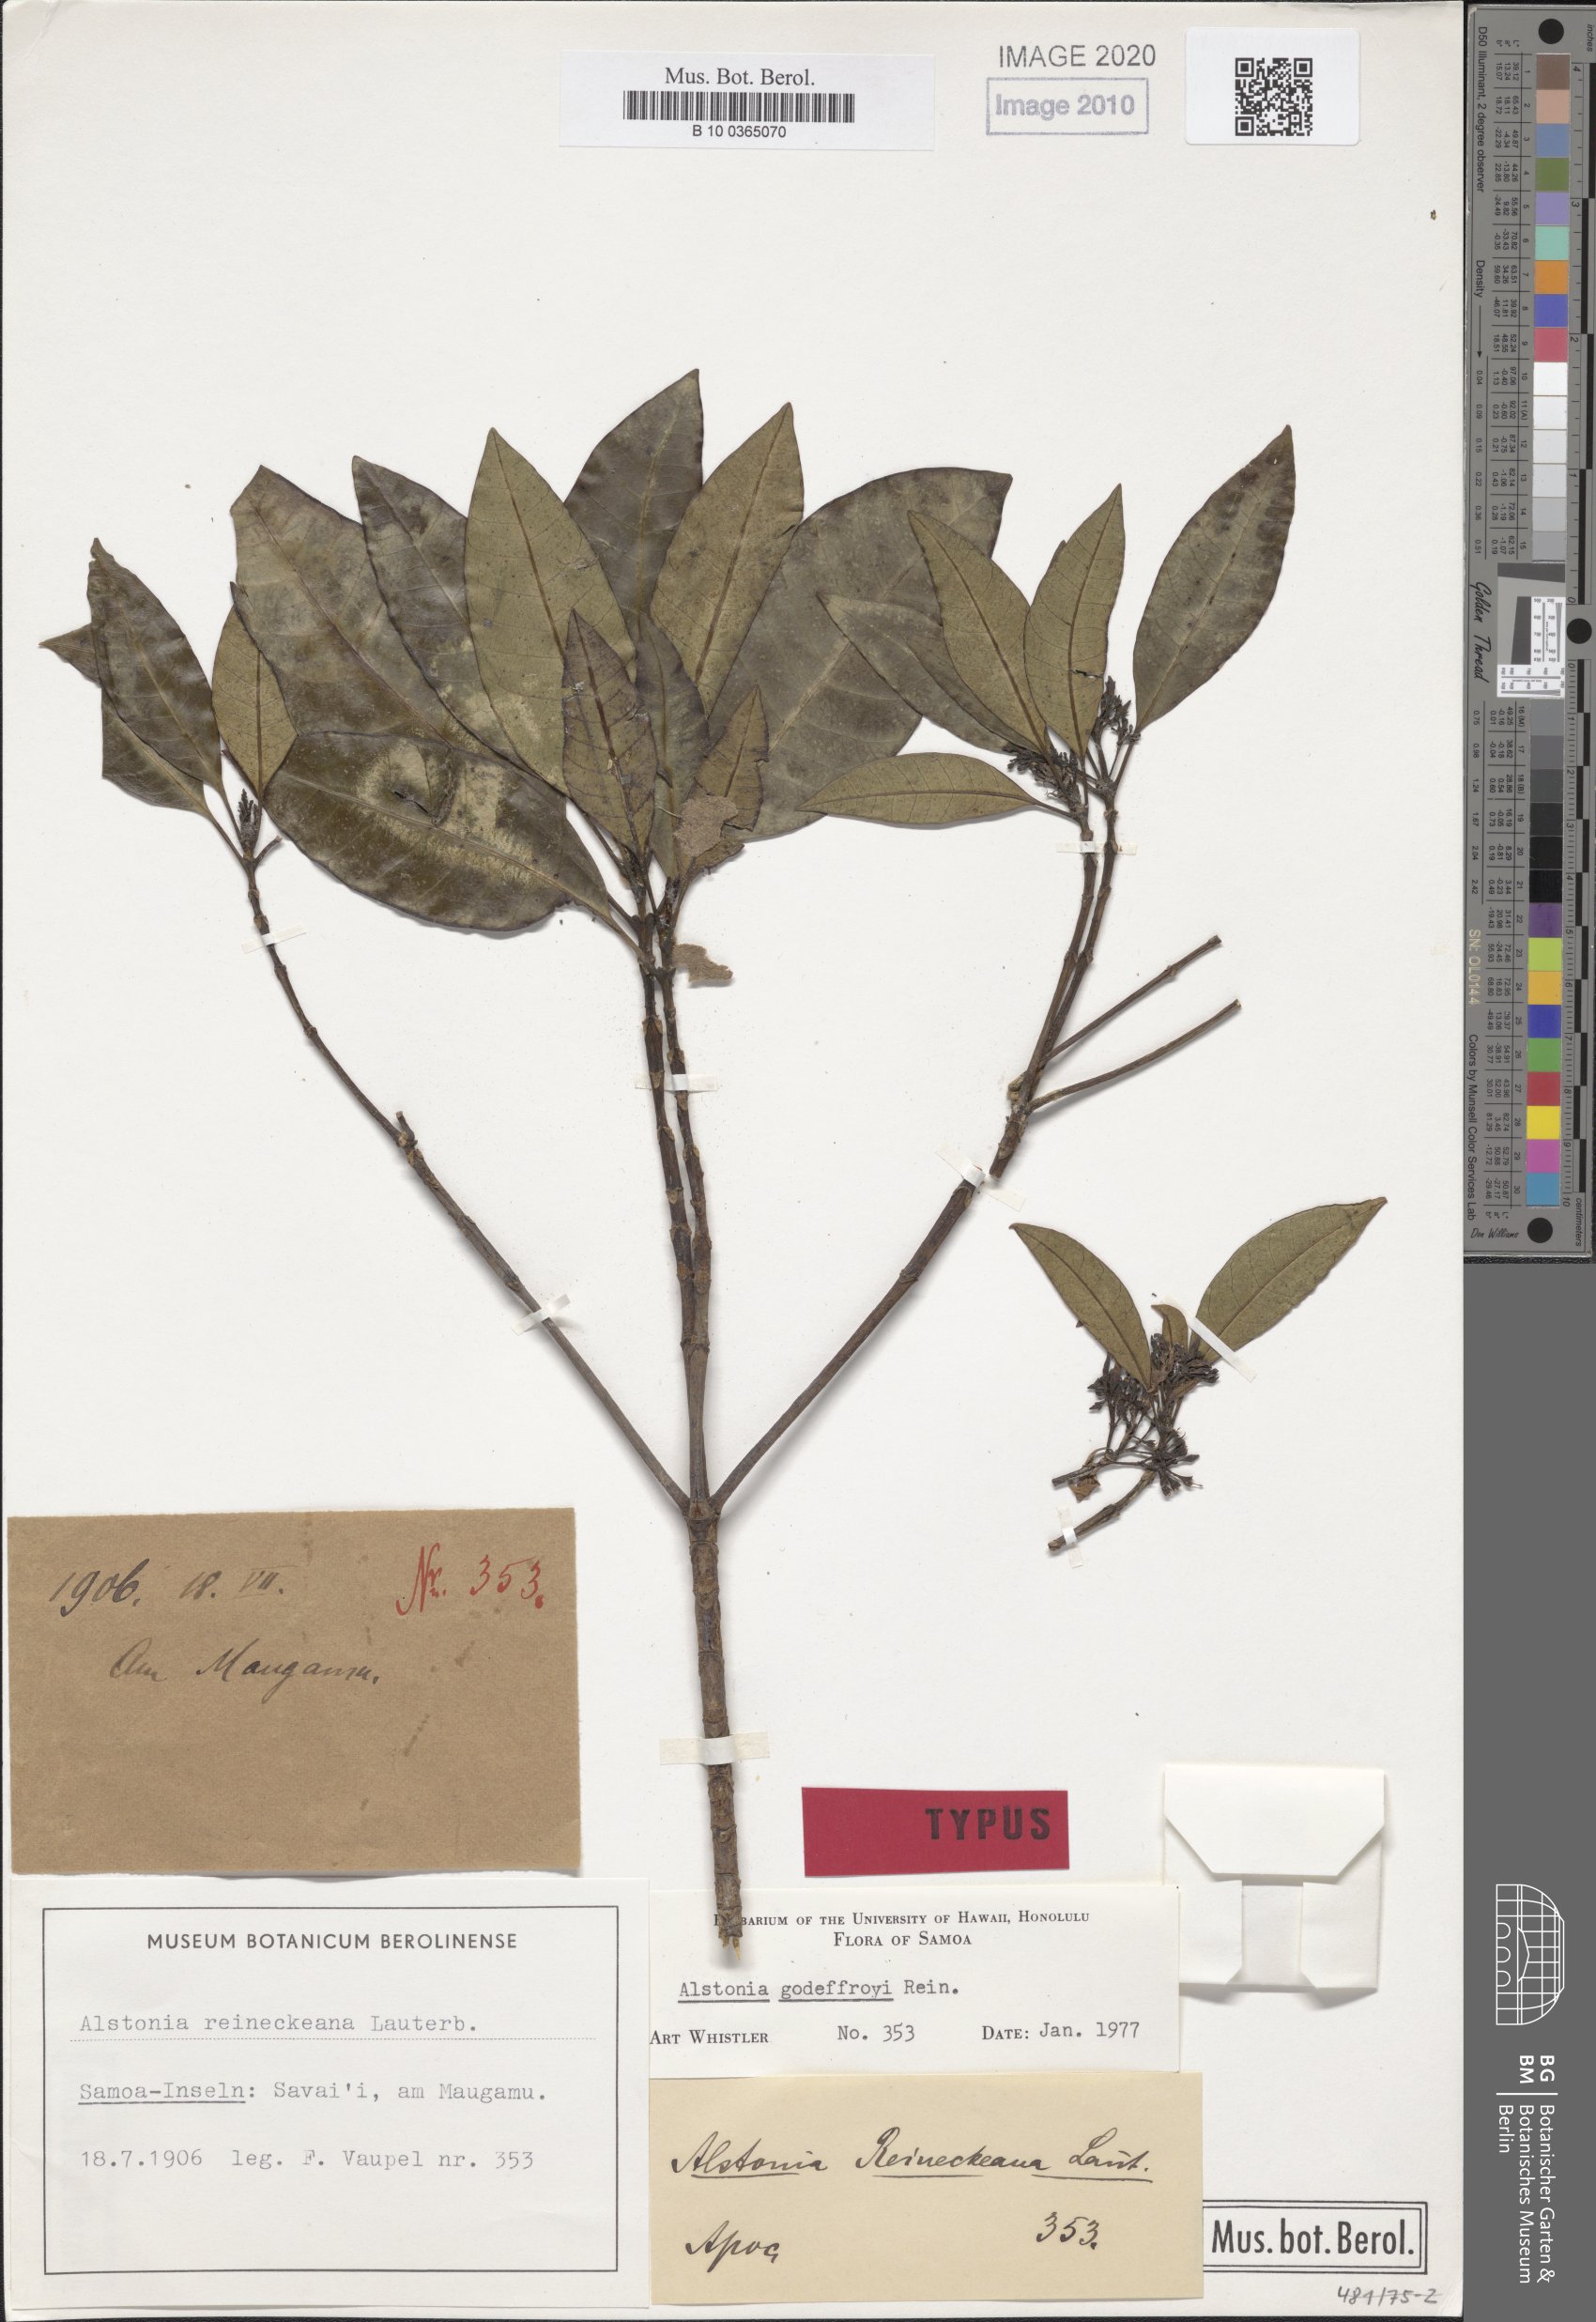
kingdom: Plantae
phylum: Tracheophyta
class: Magnoliopsida
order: Gentianales
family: Apocynaceae
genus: Alstonia
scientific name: Alstonia costata
